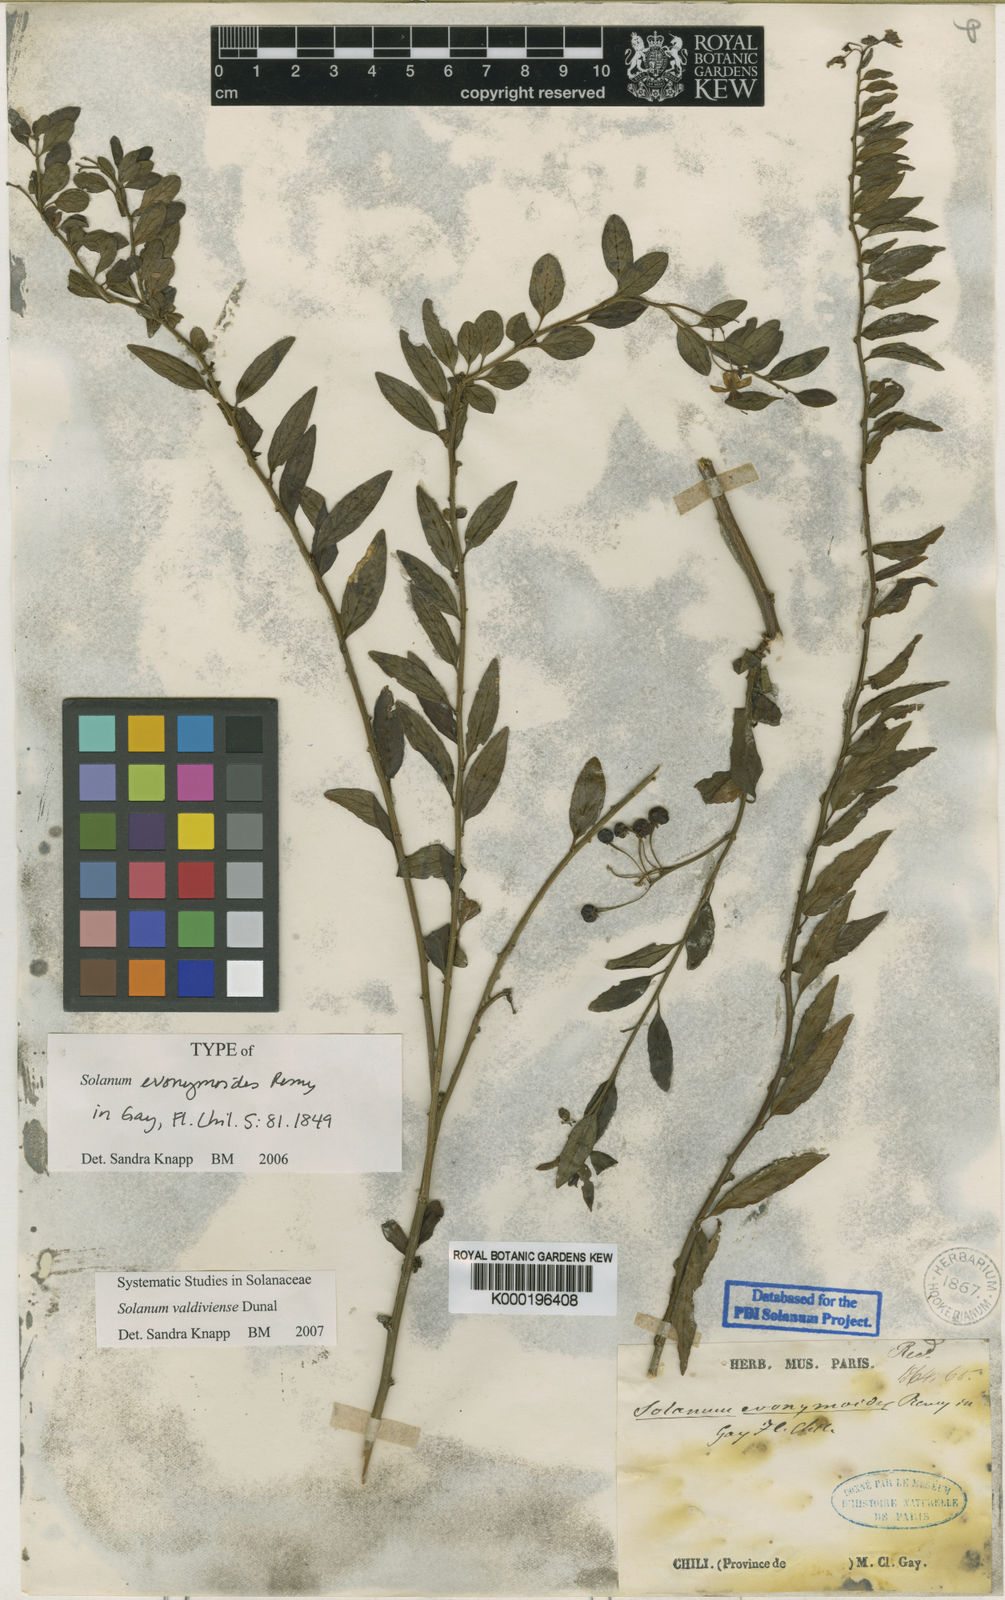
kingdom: Plantae
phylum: Tracheophyta
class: Magnoliopsida
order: Solanales
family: Solanaceae
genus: Solanum
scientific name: Solanum valdiviense
